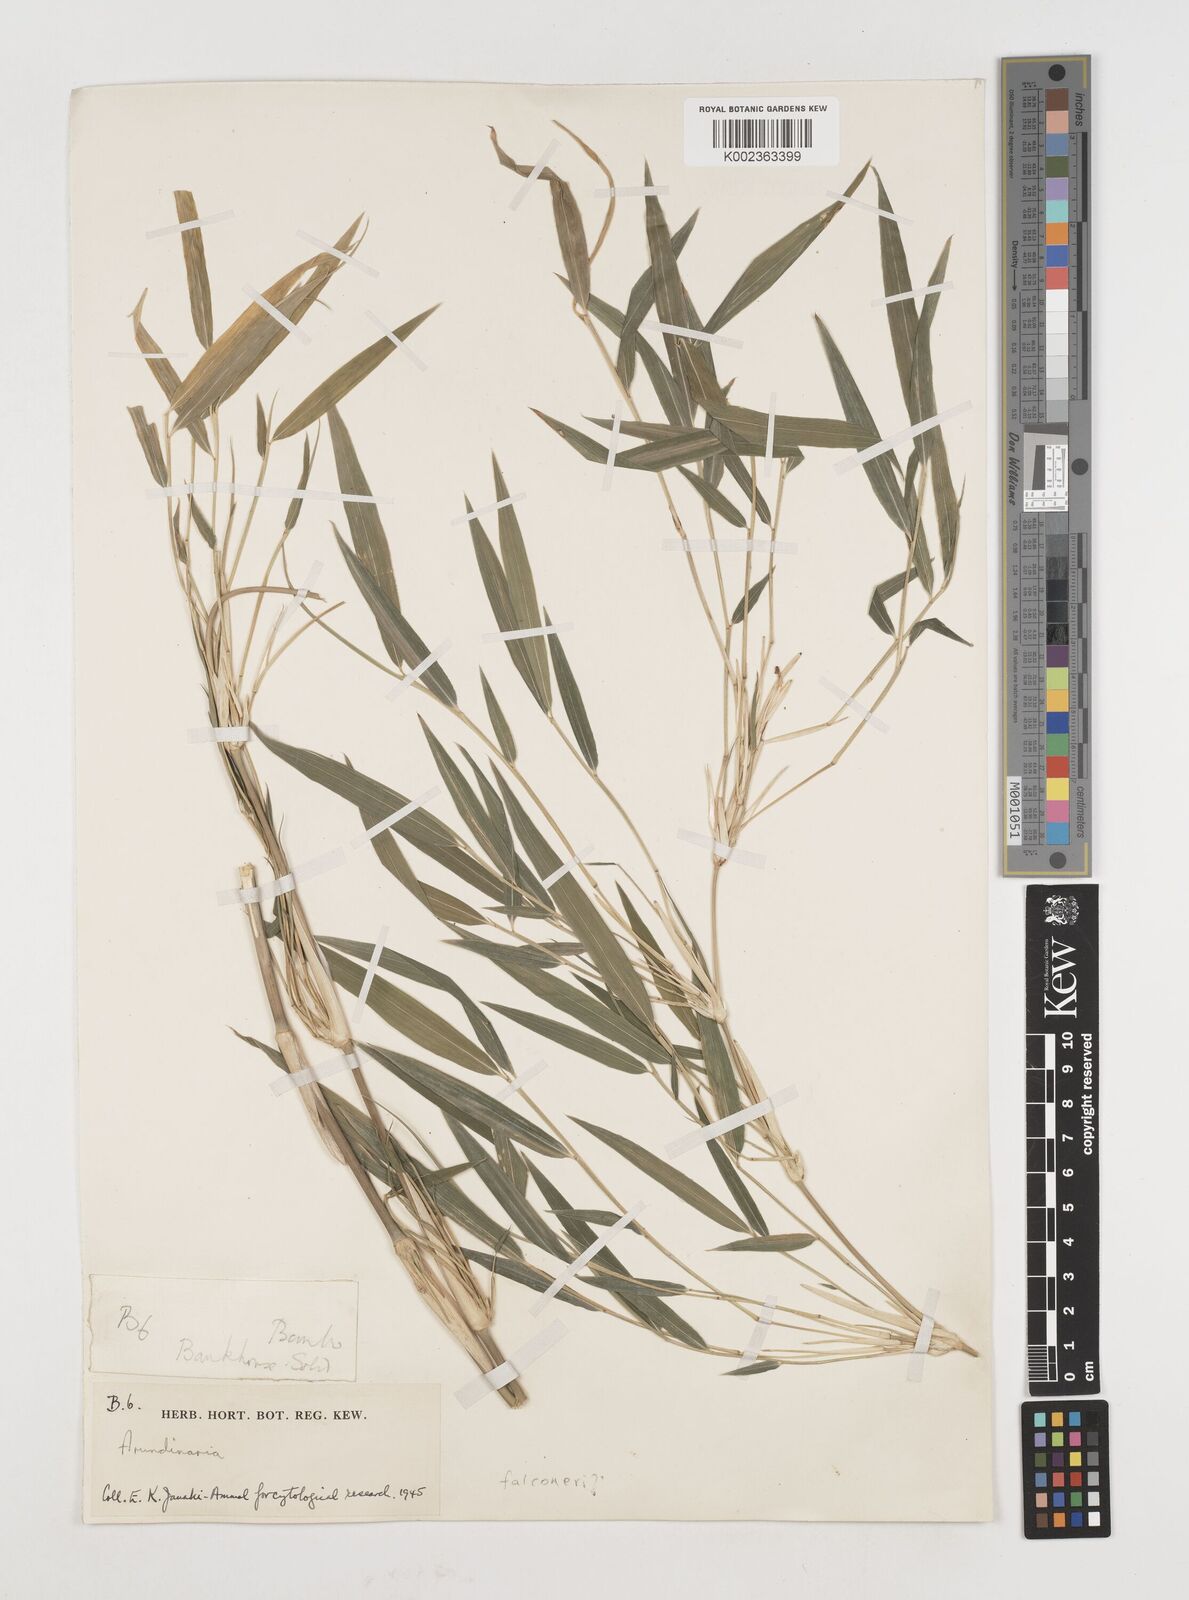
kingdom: Plantae
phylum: Tracheophyta
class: Liliopsida
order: Poales
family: Poaceae
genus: Himalayacalamus
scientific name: Himalayacalamus falconeri
